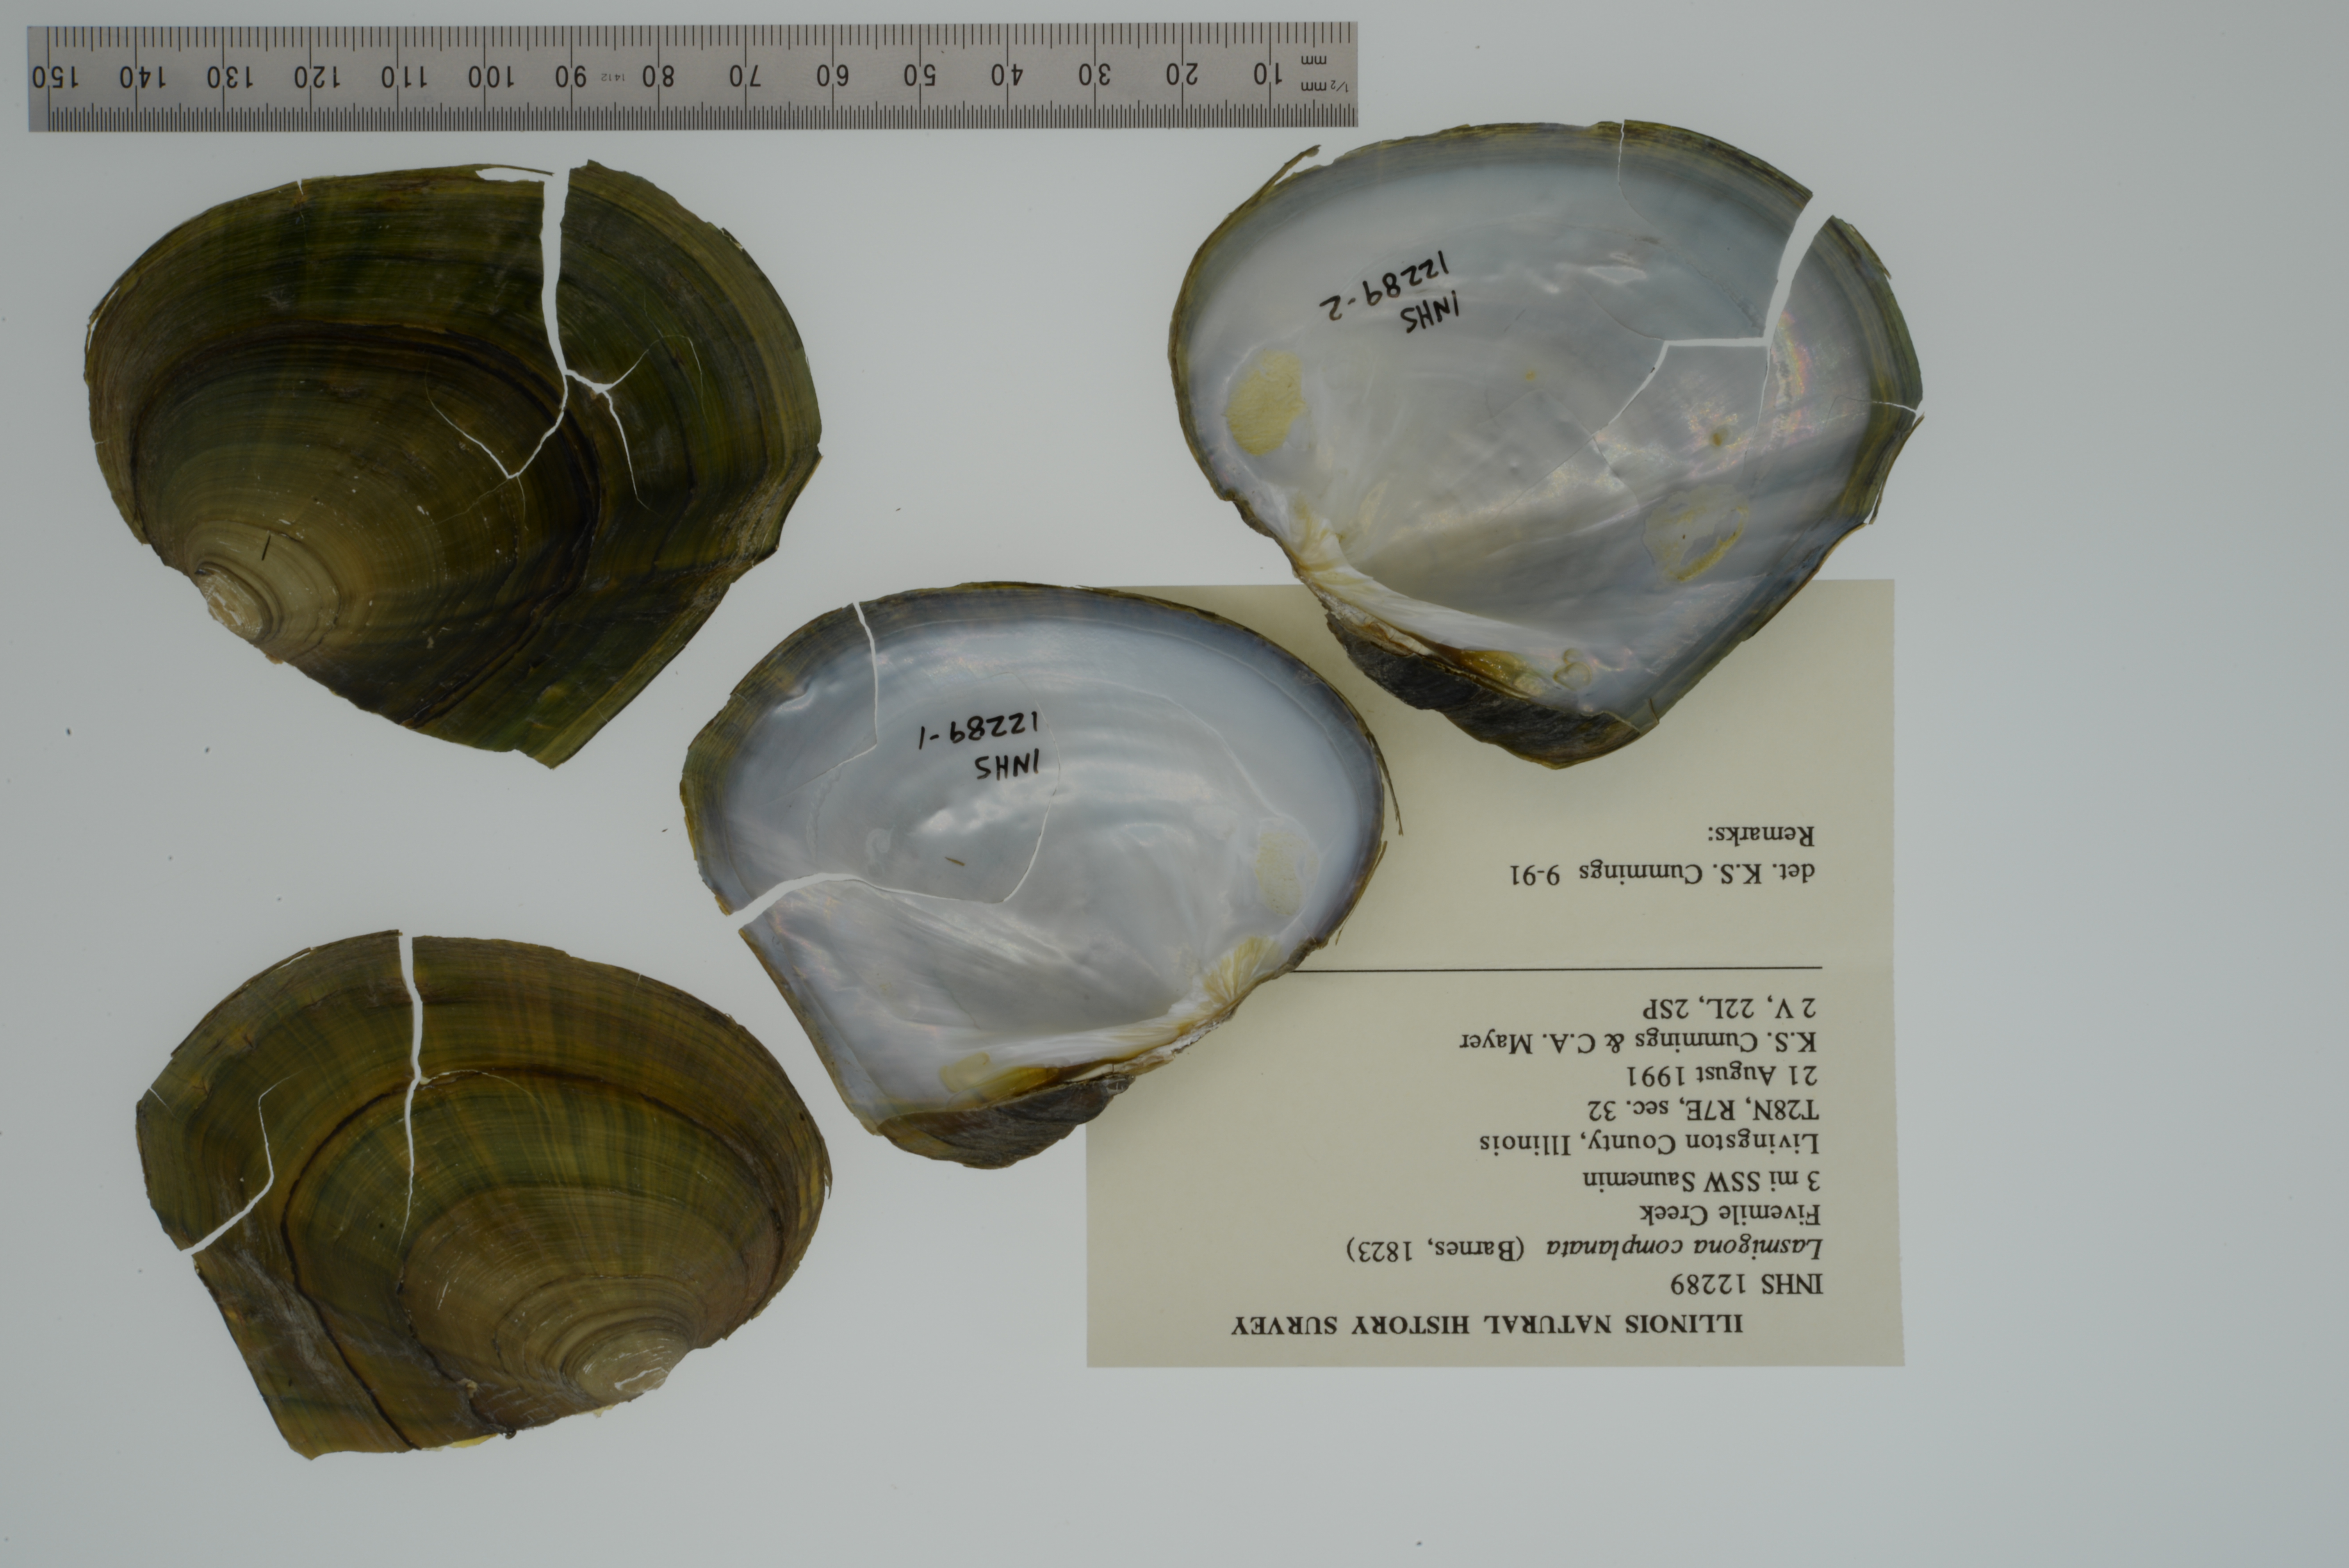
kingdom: Animalia
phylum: Mollusca
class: Bivalvia
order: Unionida
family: Unionidae
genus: Lasmigona
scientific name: Lasmigona complanata
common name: White heelsplitter
